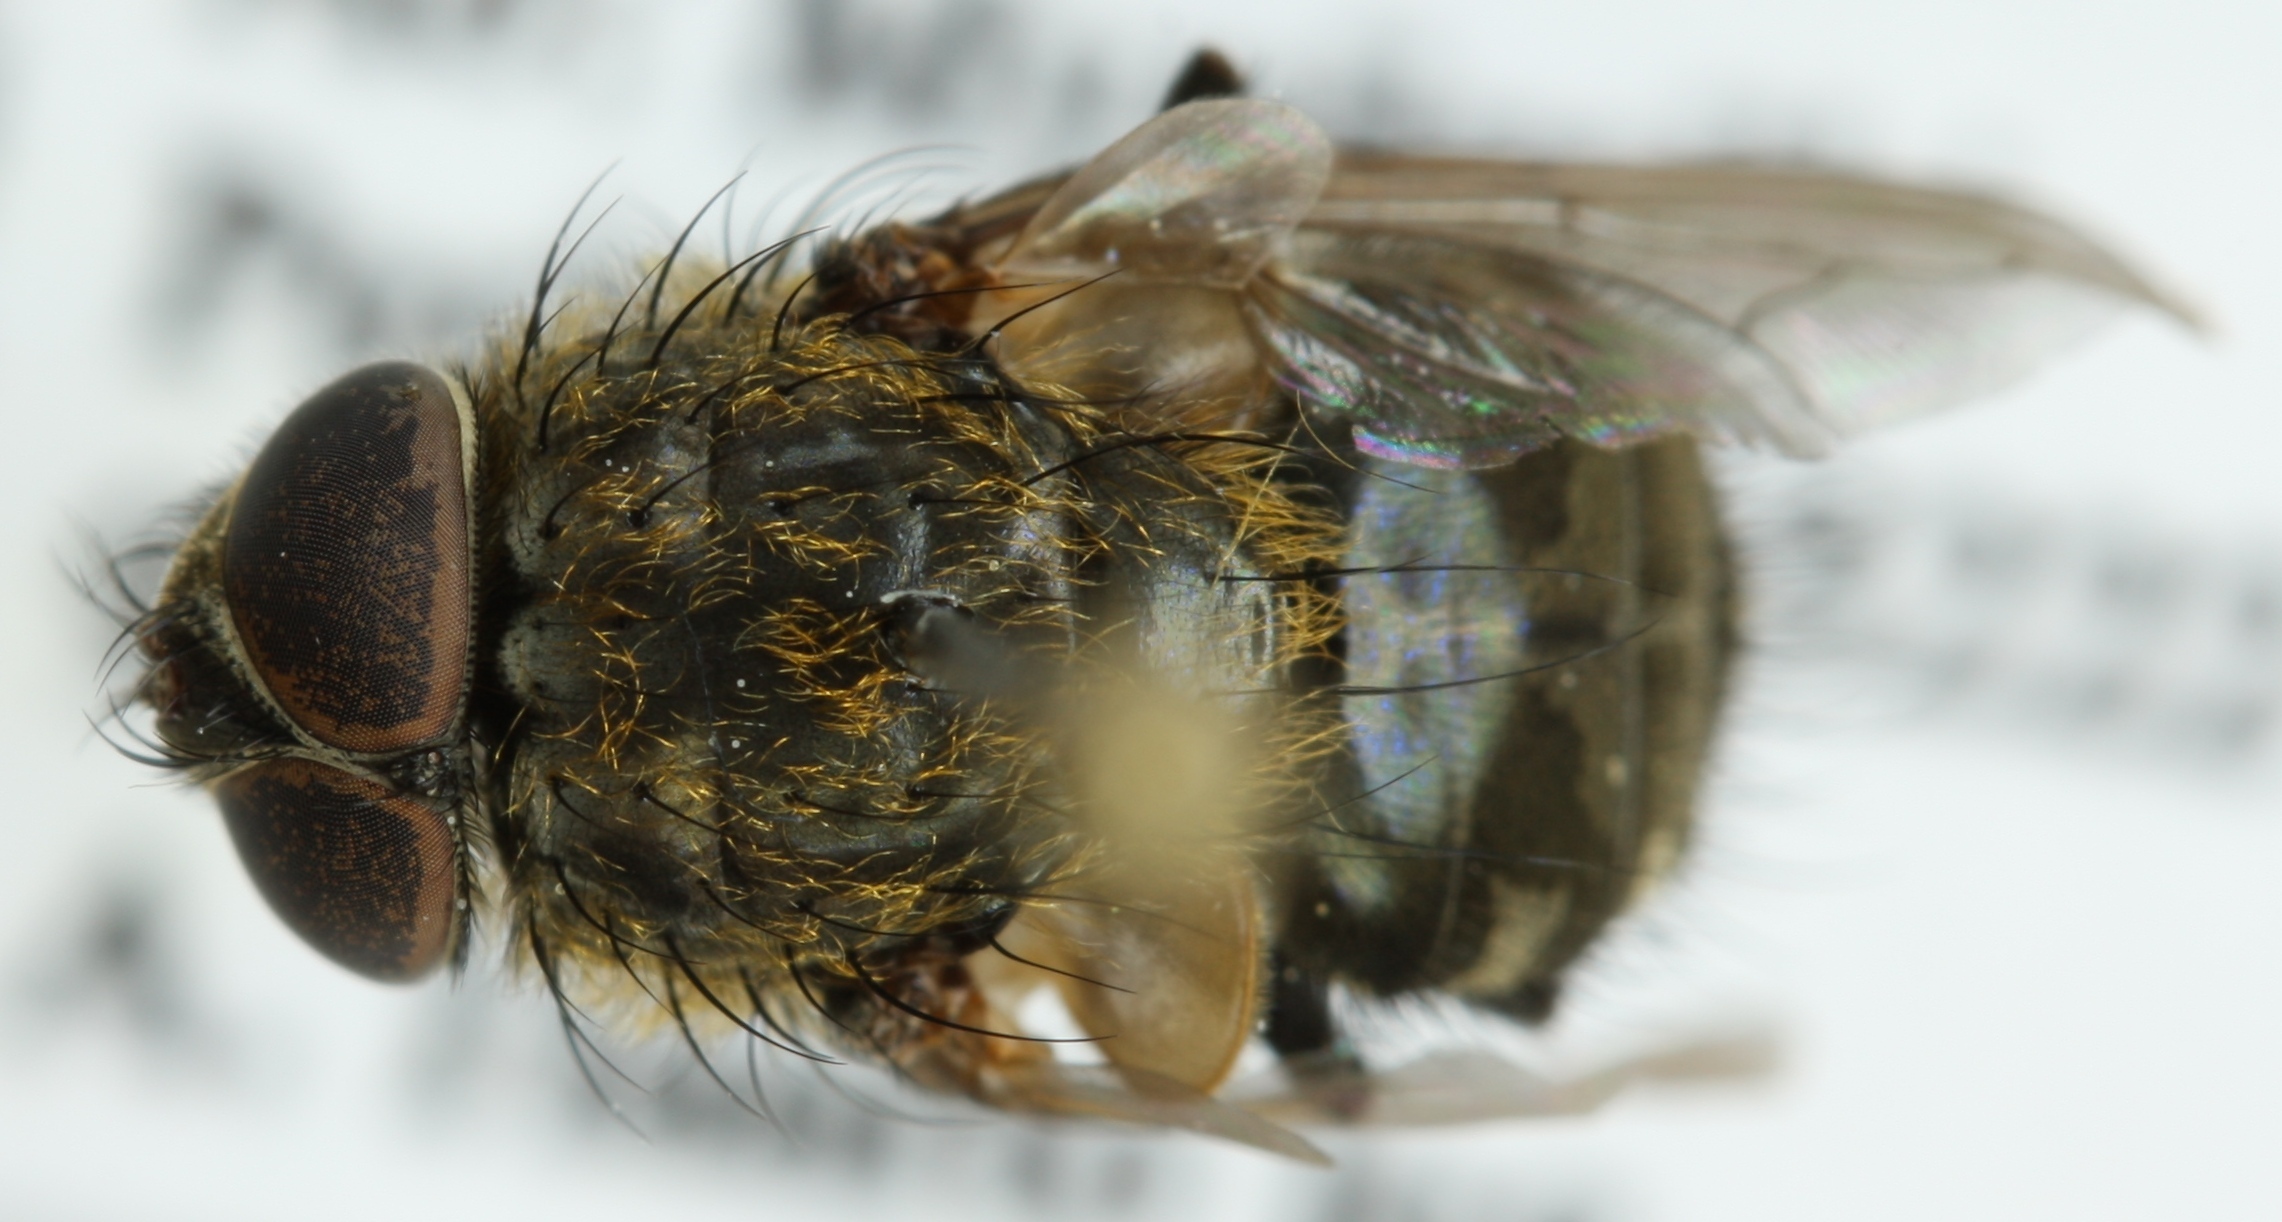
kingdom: Animalia
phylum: Arthropoda
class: Insecta
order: Diptera
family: Polleniidae
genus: Pollenia
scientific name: Pollenia angustigena
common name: Narrow-cheeked clusterfly
